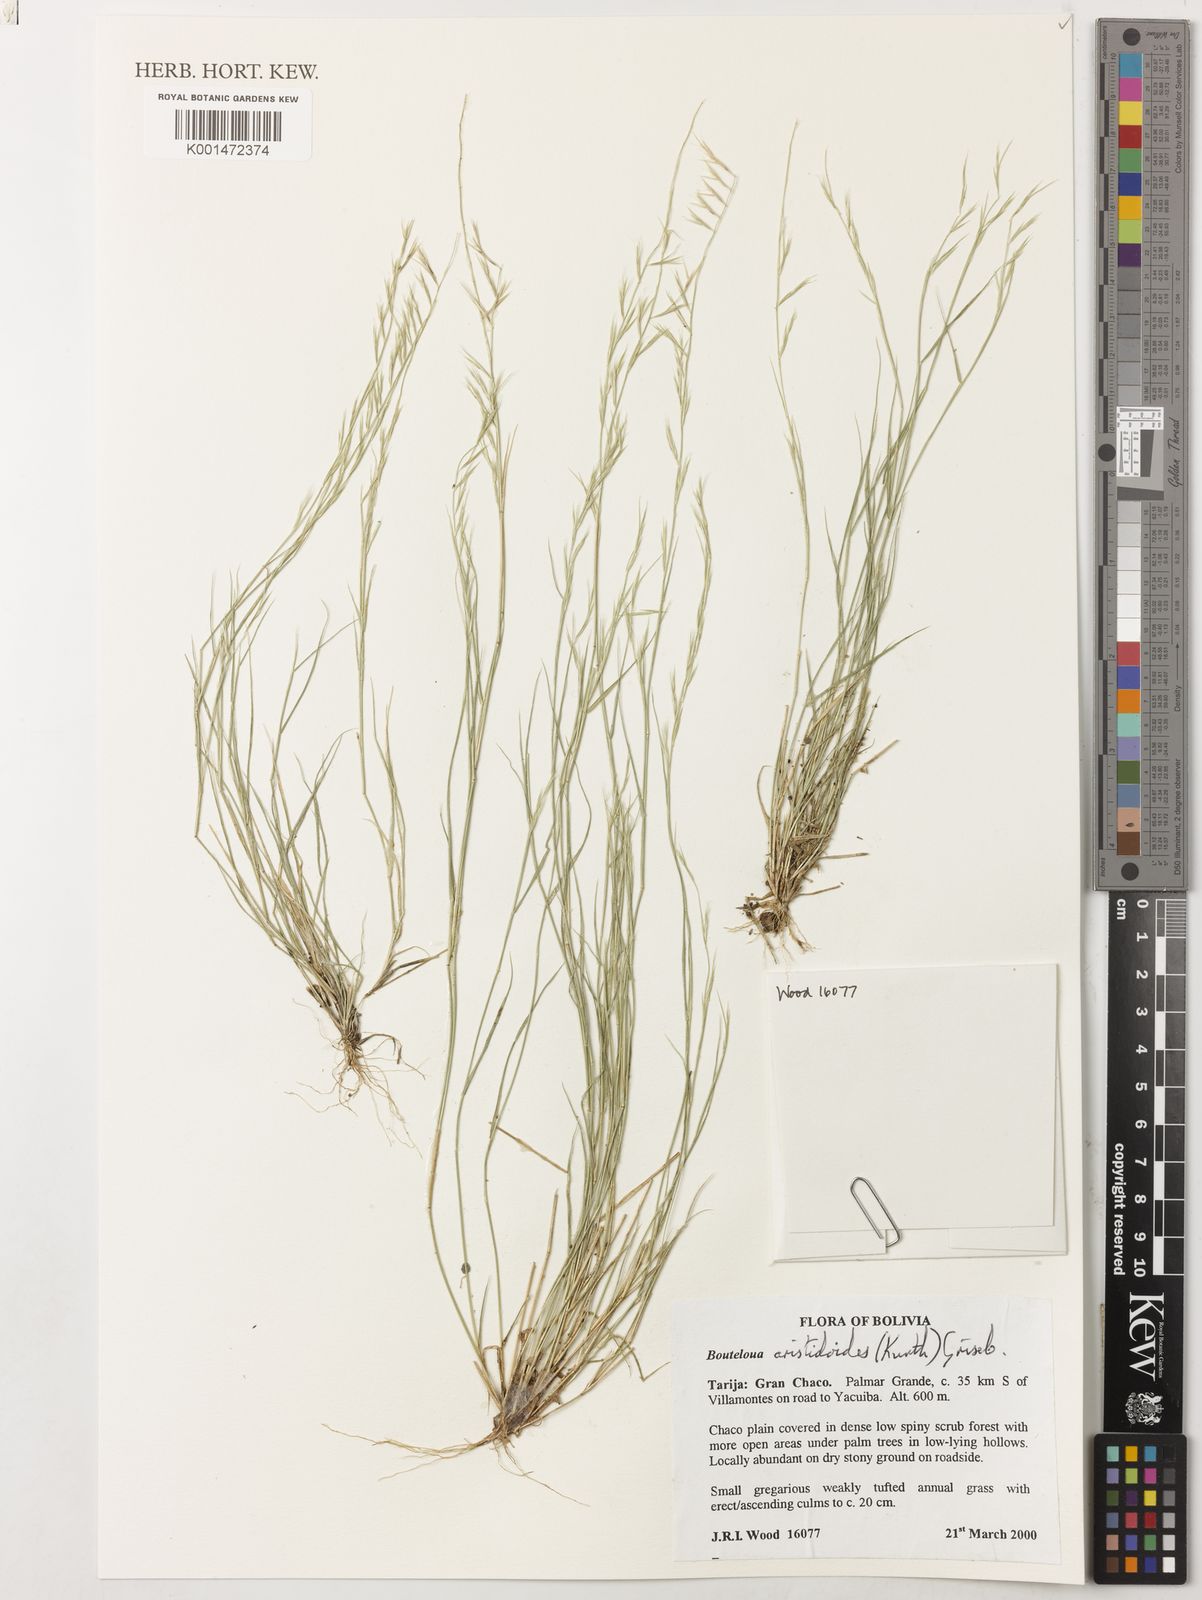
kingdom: Plantae
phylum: Tracheophyta
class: Liliopsida
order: Poales
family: Poaceae
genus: Bouteloua
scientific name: Bouteloua aristidoides
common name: Needle grama
